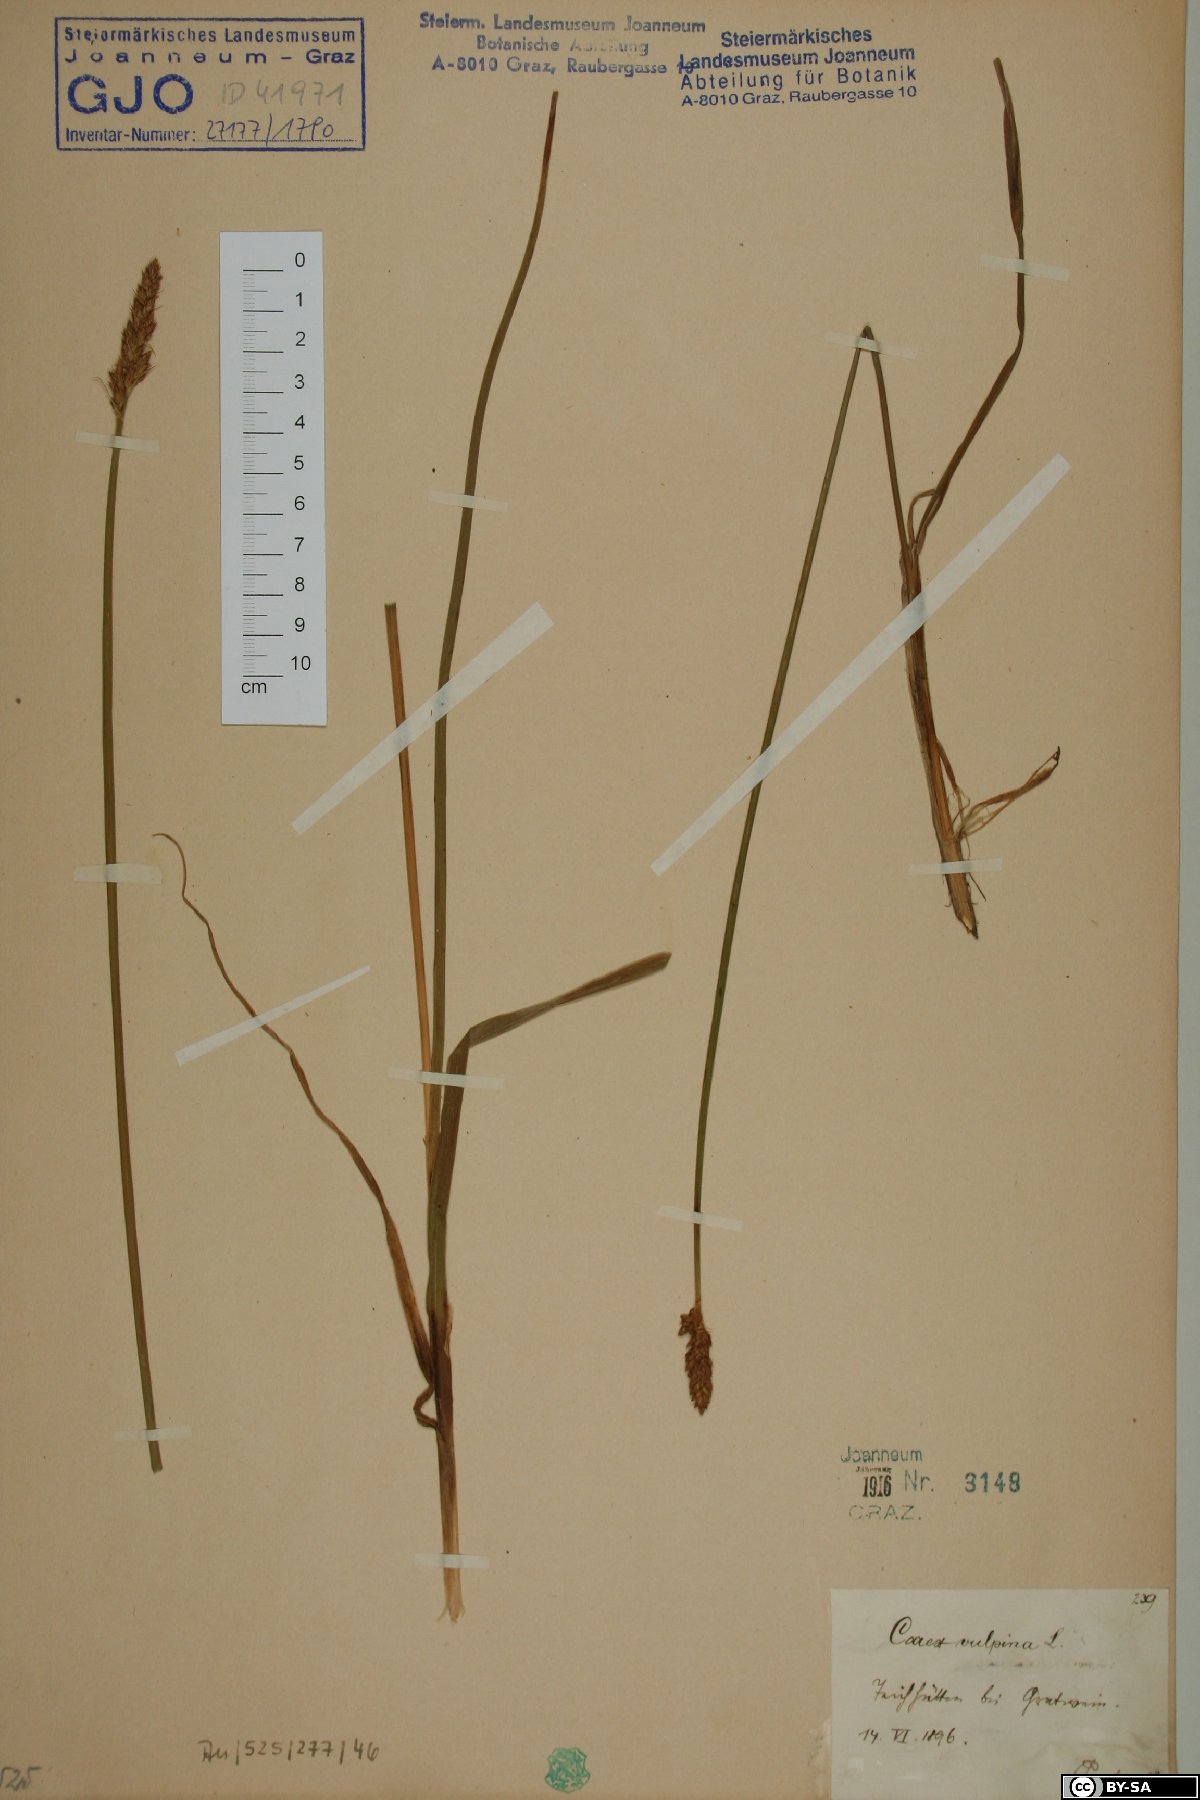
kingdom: Plantae
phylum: Tracheophyta
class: Liliopsida
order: Poales
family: Cyperaceae
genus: Carex
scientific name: Carex vulpina
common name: True fox-sedge
